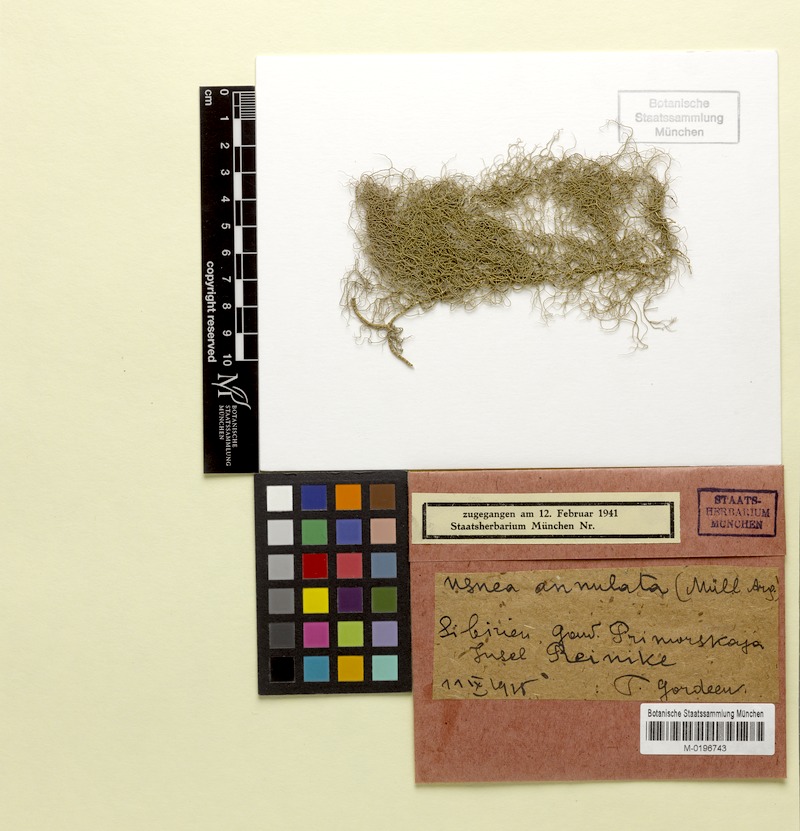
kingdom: Fungi
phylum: Ascomycota
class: Lecanoromycetes
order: Lecanorales
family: Parmeliaceae
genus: Usnea
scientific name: Usnea
